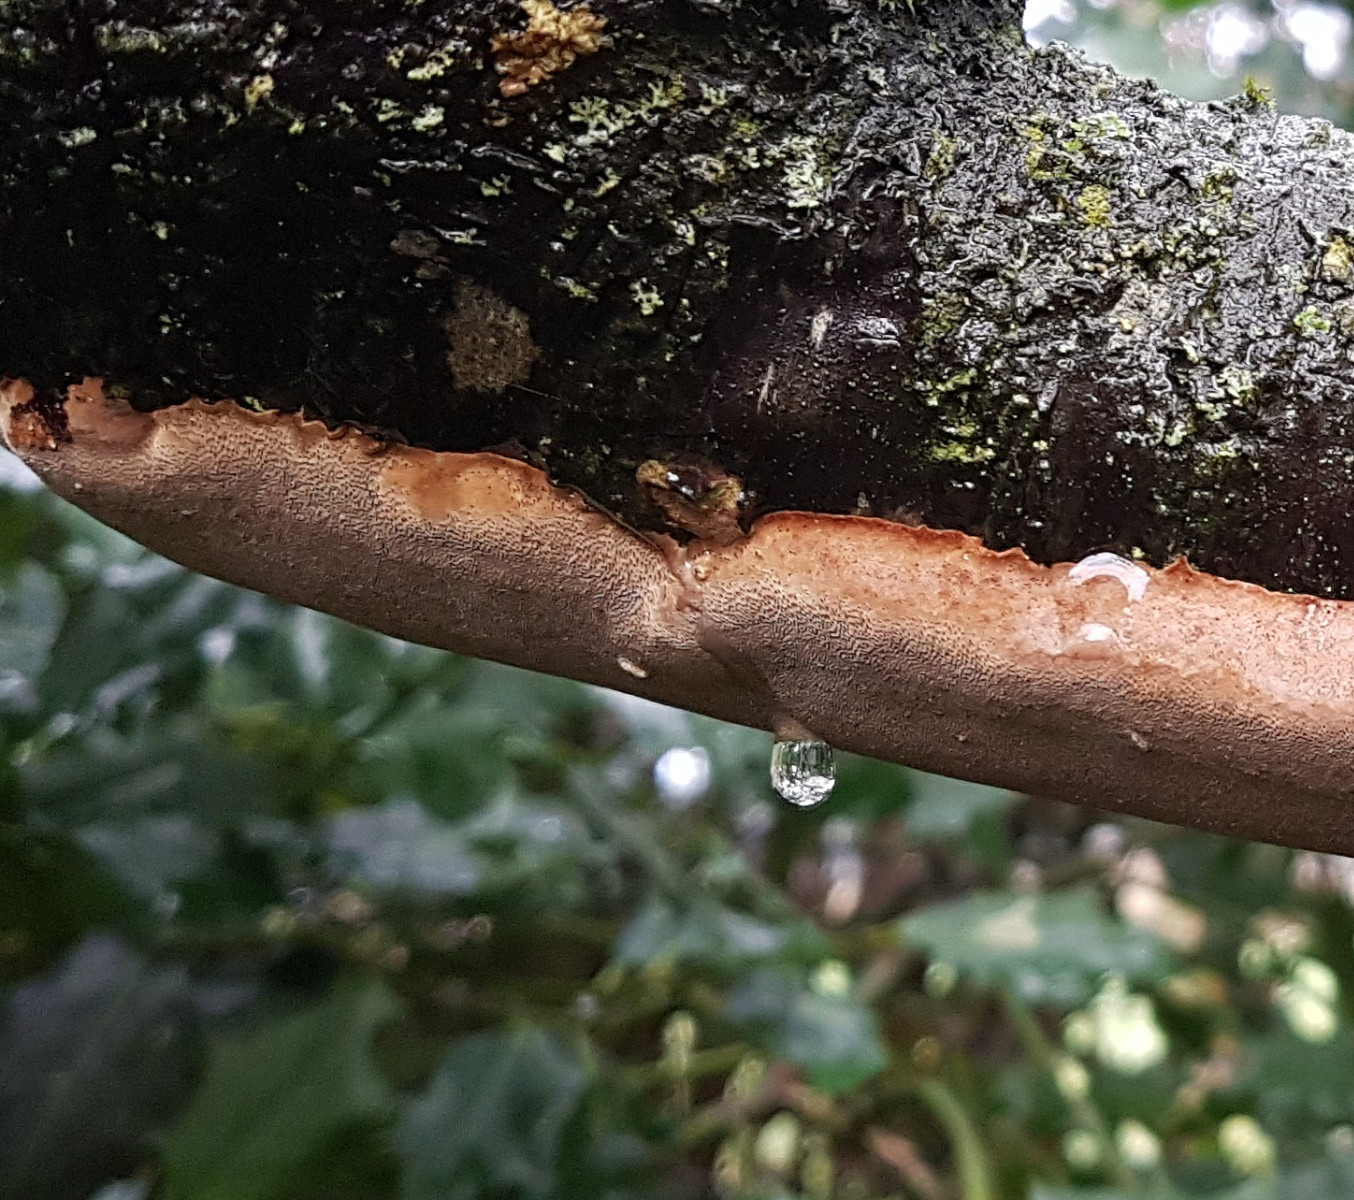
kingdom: Fungi
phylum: Basidiomycota
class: Agaricomycetes
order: Hymenochaetales
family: Hymenochaetaceae
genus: Phellinus
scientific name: Phellinus pomaceus
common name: blomme-ildporesvamp
